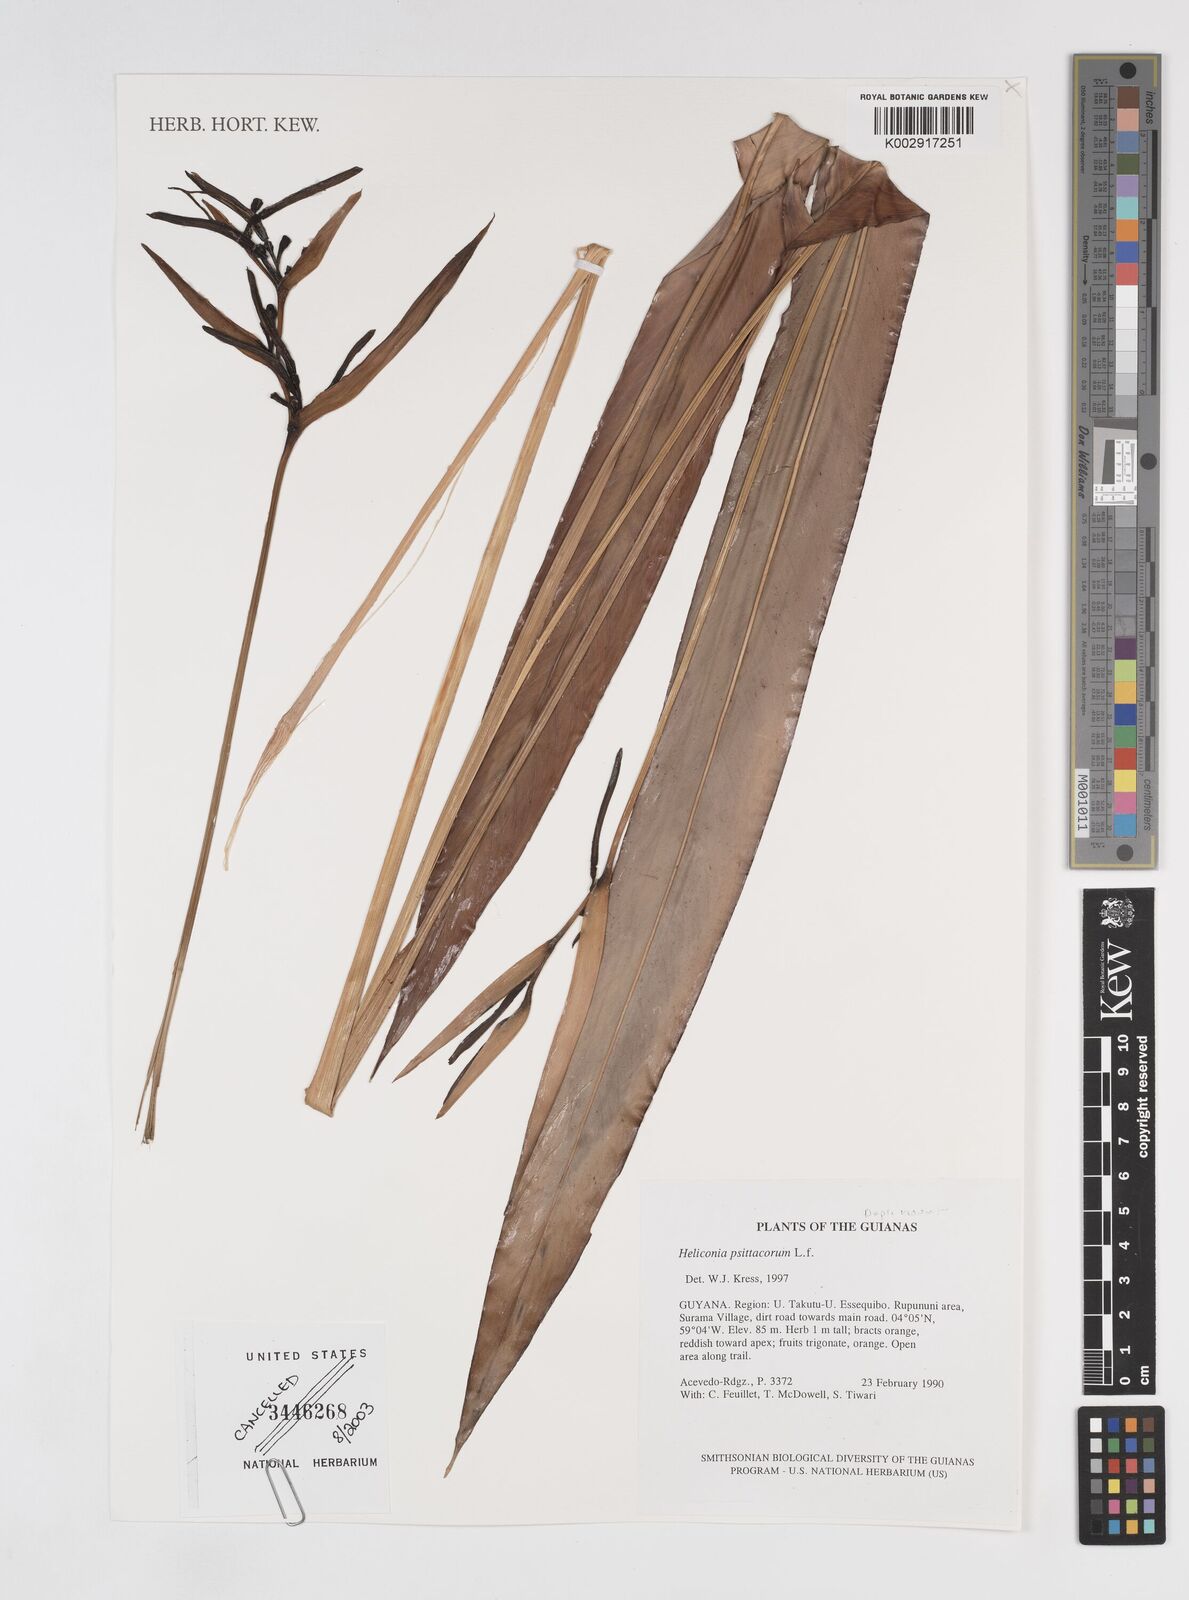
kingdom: Plantae
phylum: Tracheophyta
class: Liliopsida
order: Zingiberales
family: Heliconiaceae
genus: Heliconia
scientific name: Heliconia psittacorum
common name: Parrot's-flower
